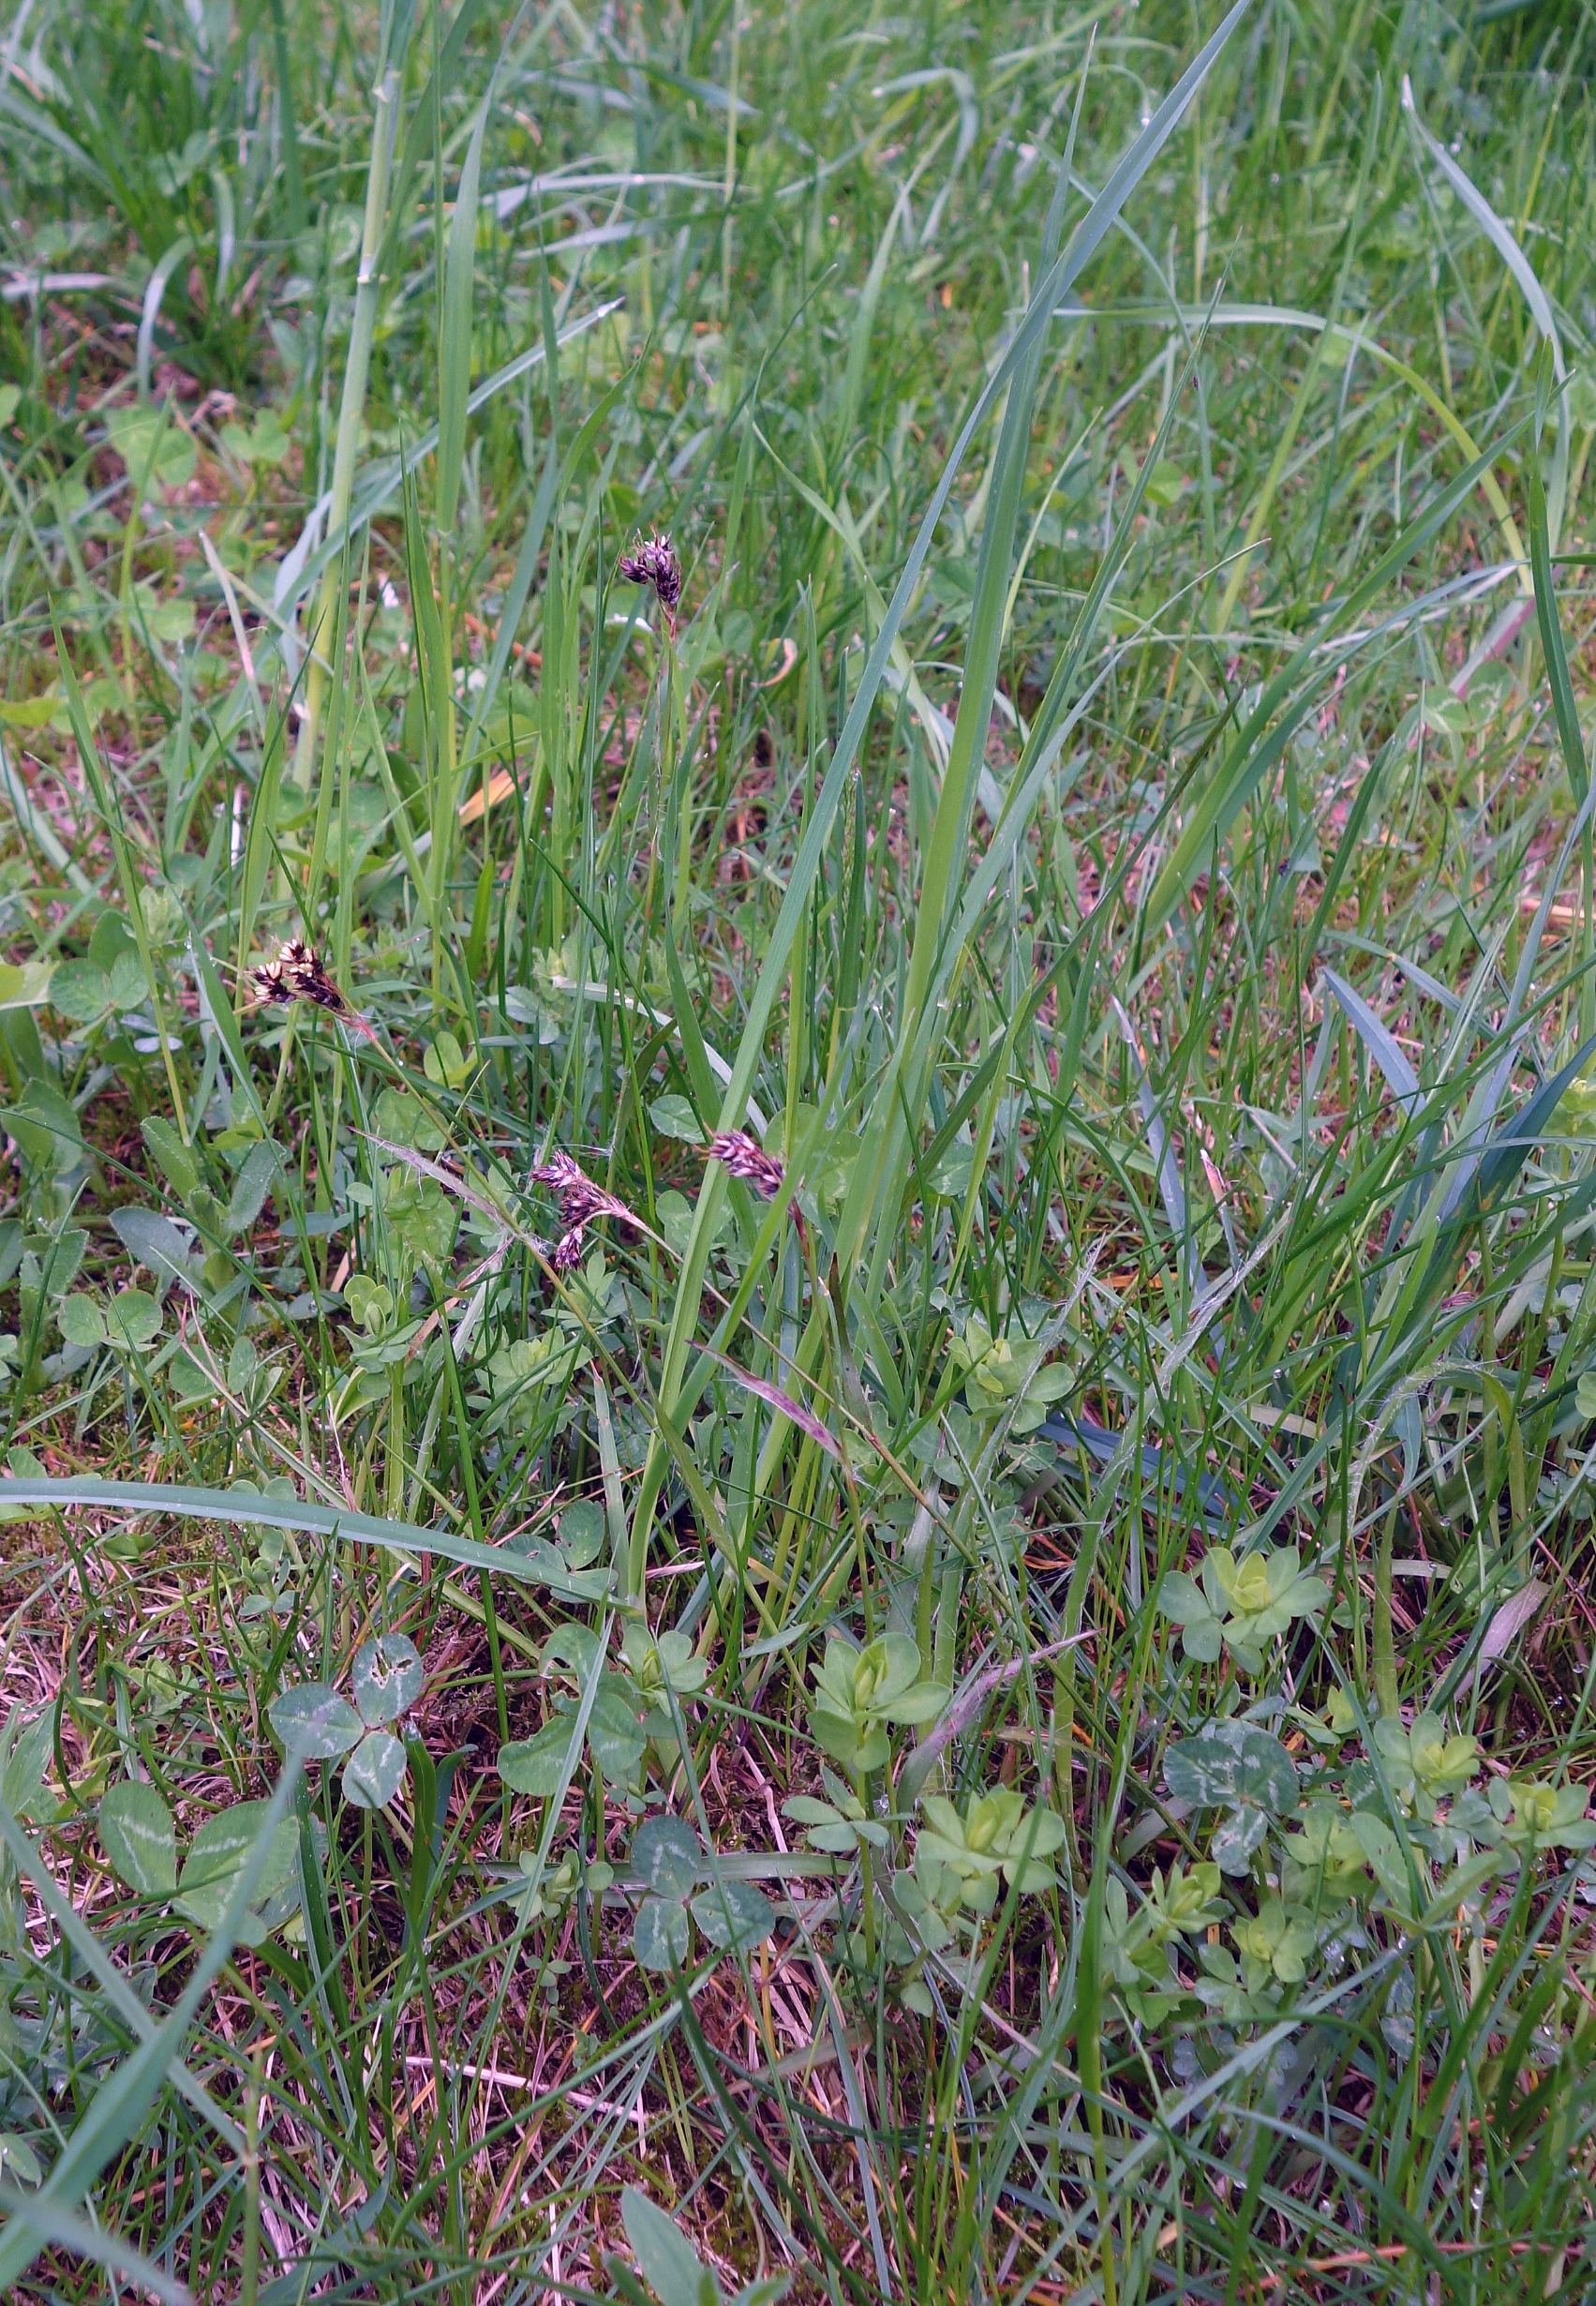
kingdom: Plantae
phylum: Tracheophyta
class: Liliopsida
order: Poales
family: Juncaceae
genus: Luzula
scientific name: Luzula campestris
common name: Mark-frytle
